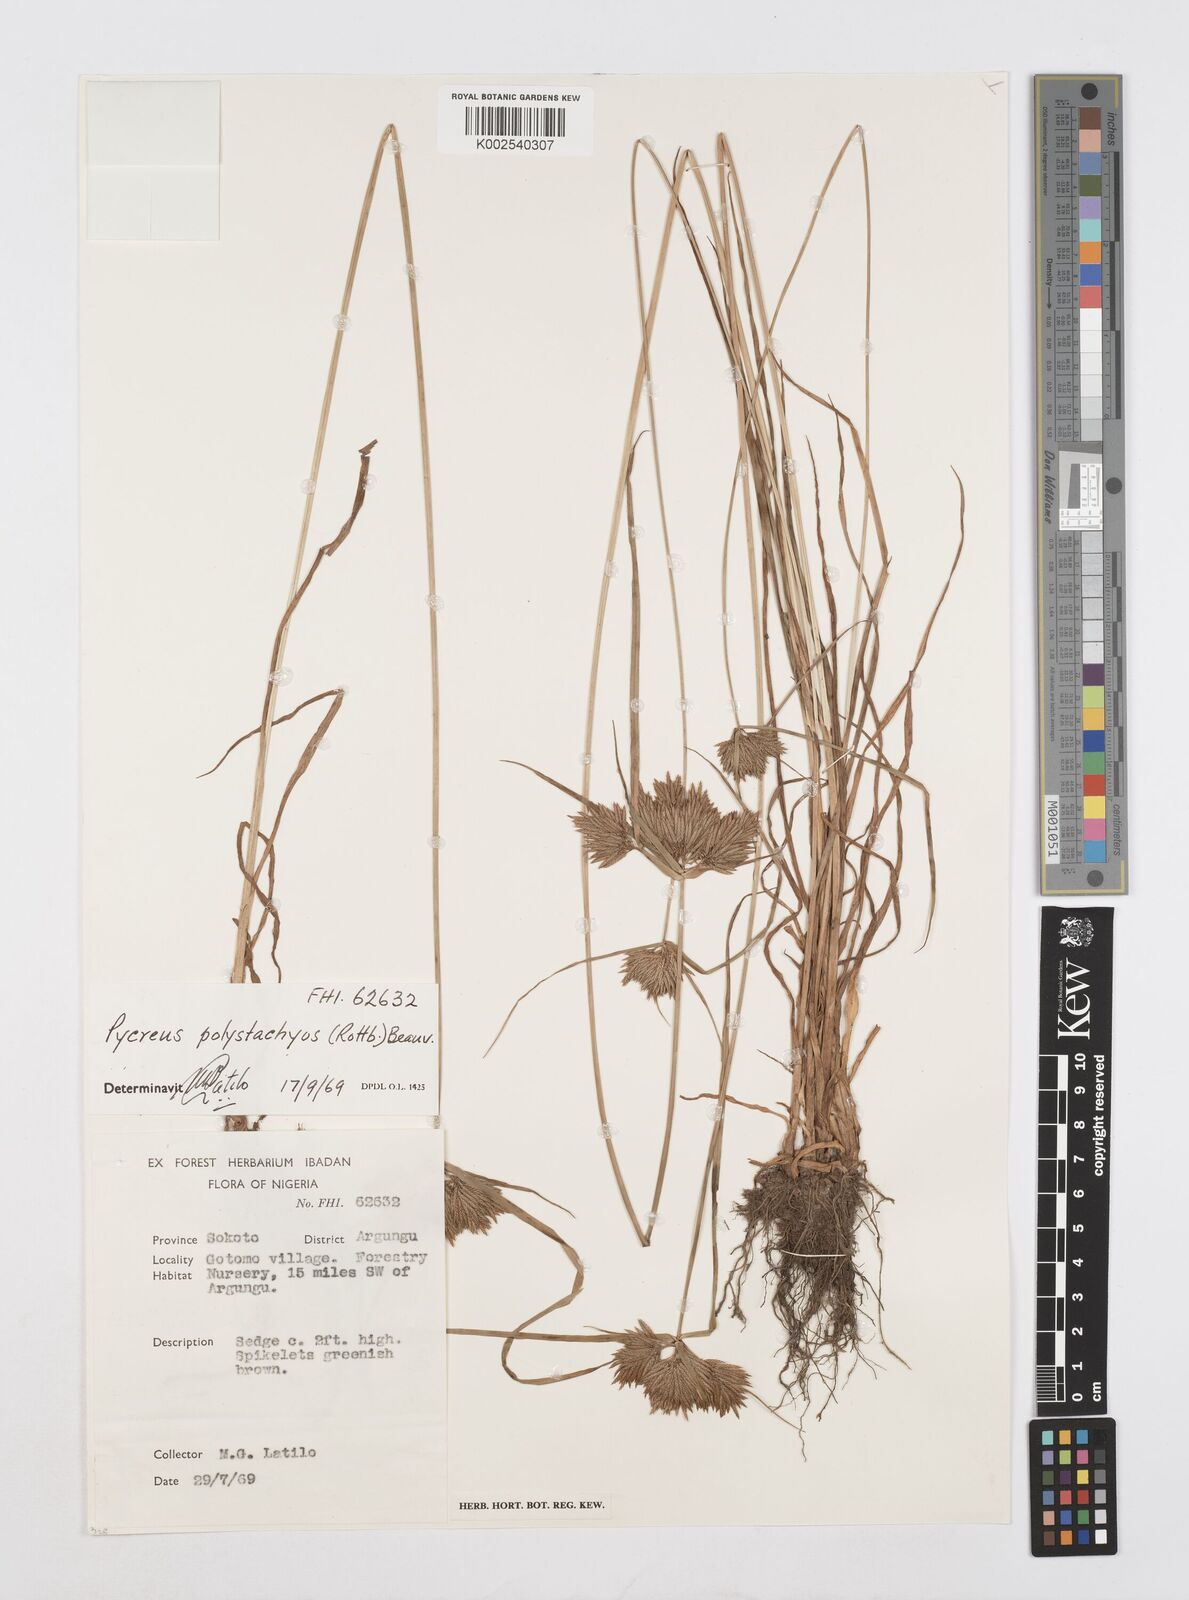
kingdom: Plantae
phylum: Tracheophyta
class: Liliopsida
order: Poales
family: Cyperaceae
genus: Cyperus
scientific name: Cyperus polystachyos
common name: Bunchy flat sedge
